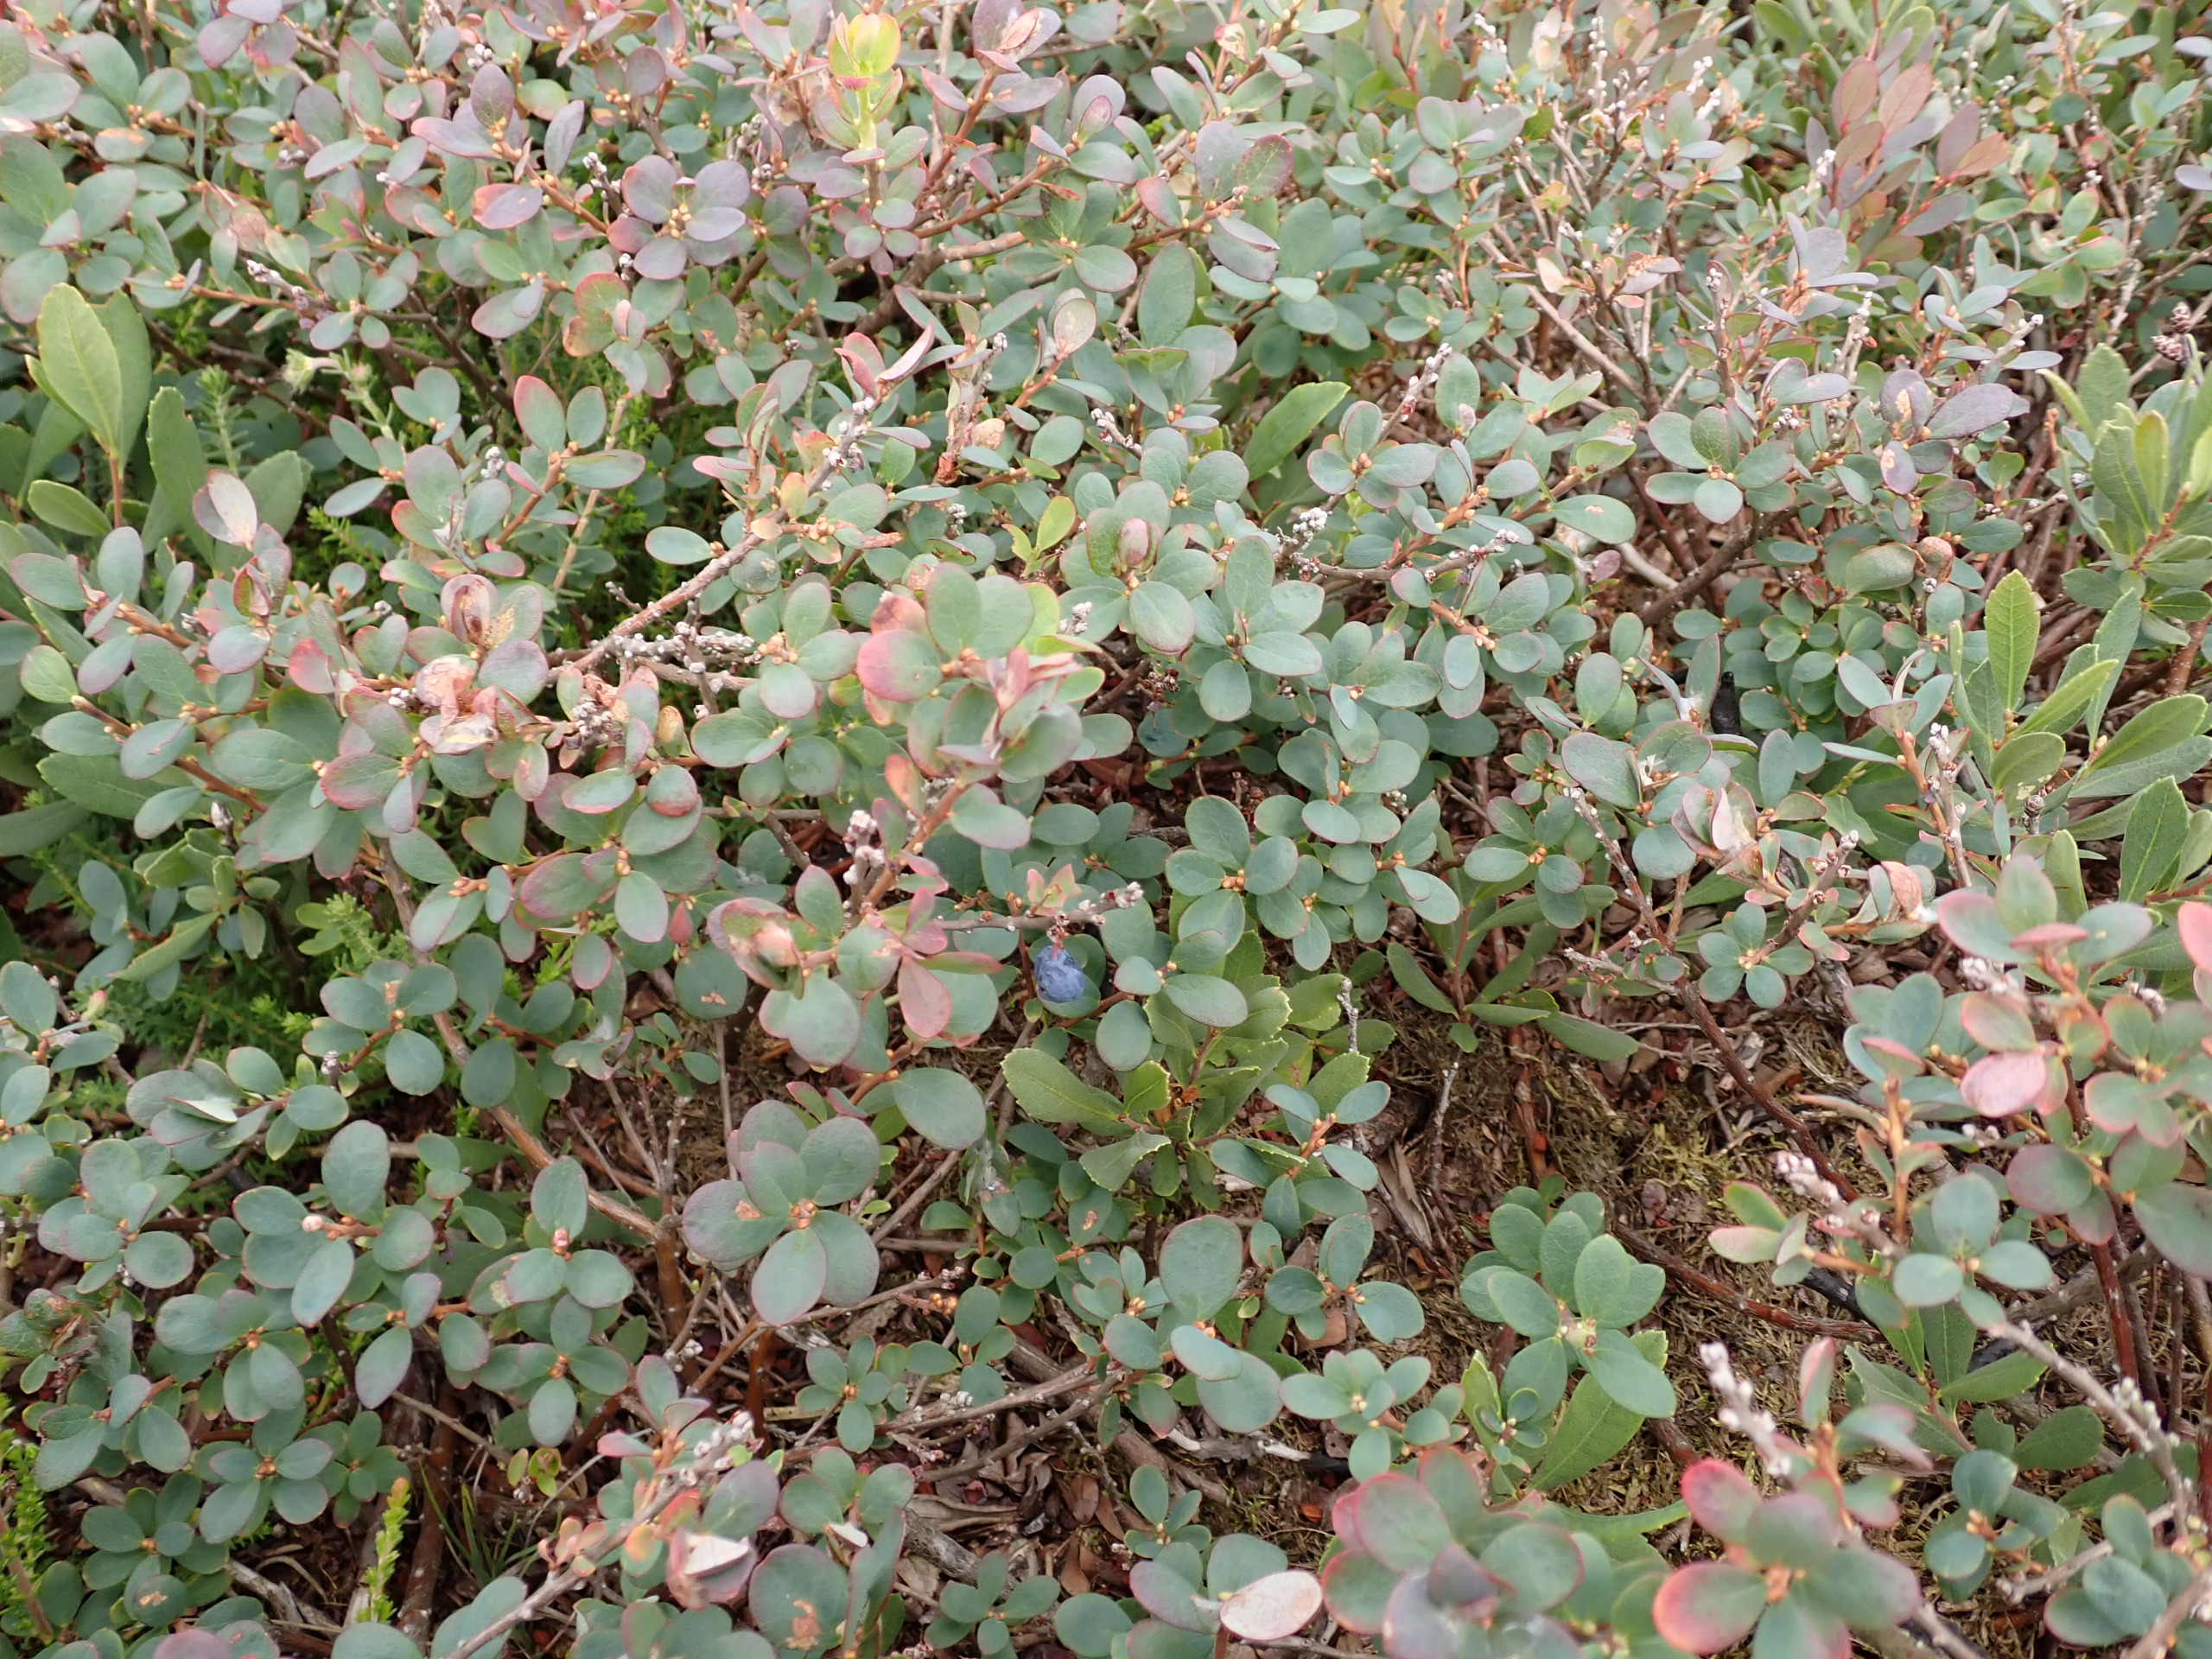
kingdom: Plantae
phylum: Tracheophyta
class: Magnoliopsida
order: Ericales
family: Ericaceae
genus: Vaccinium
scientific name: Vaccinium uliginosum
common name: Mose-bølle
